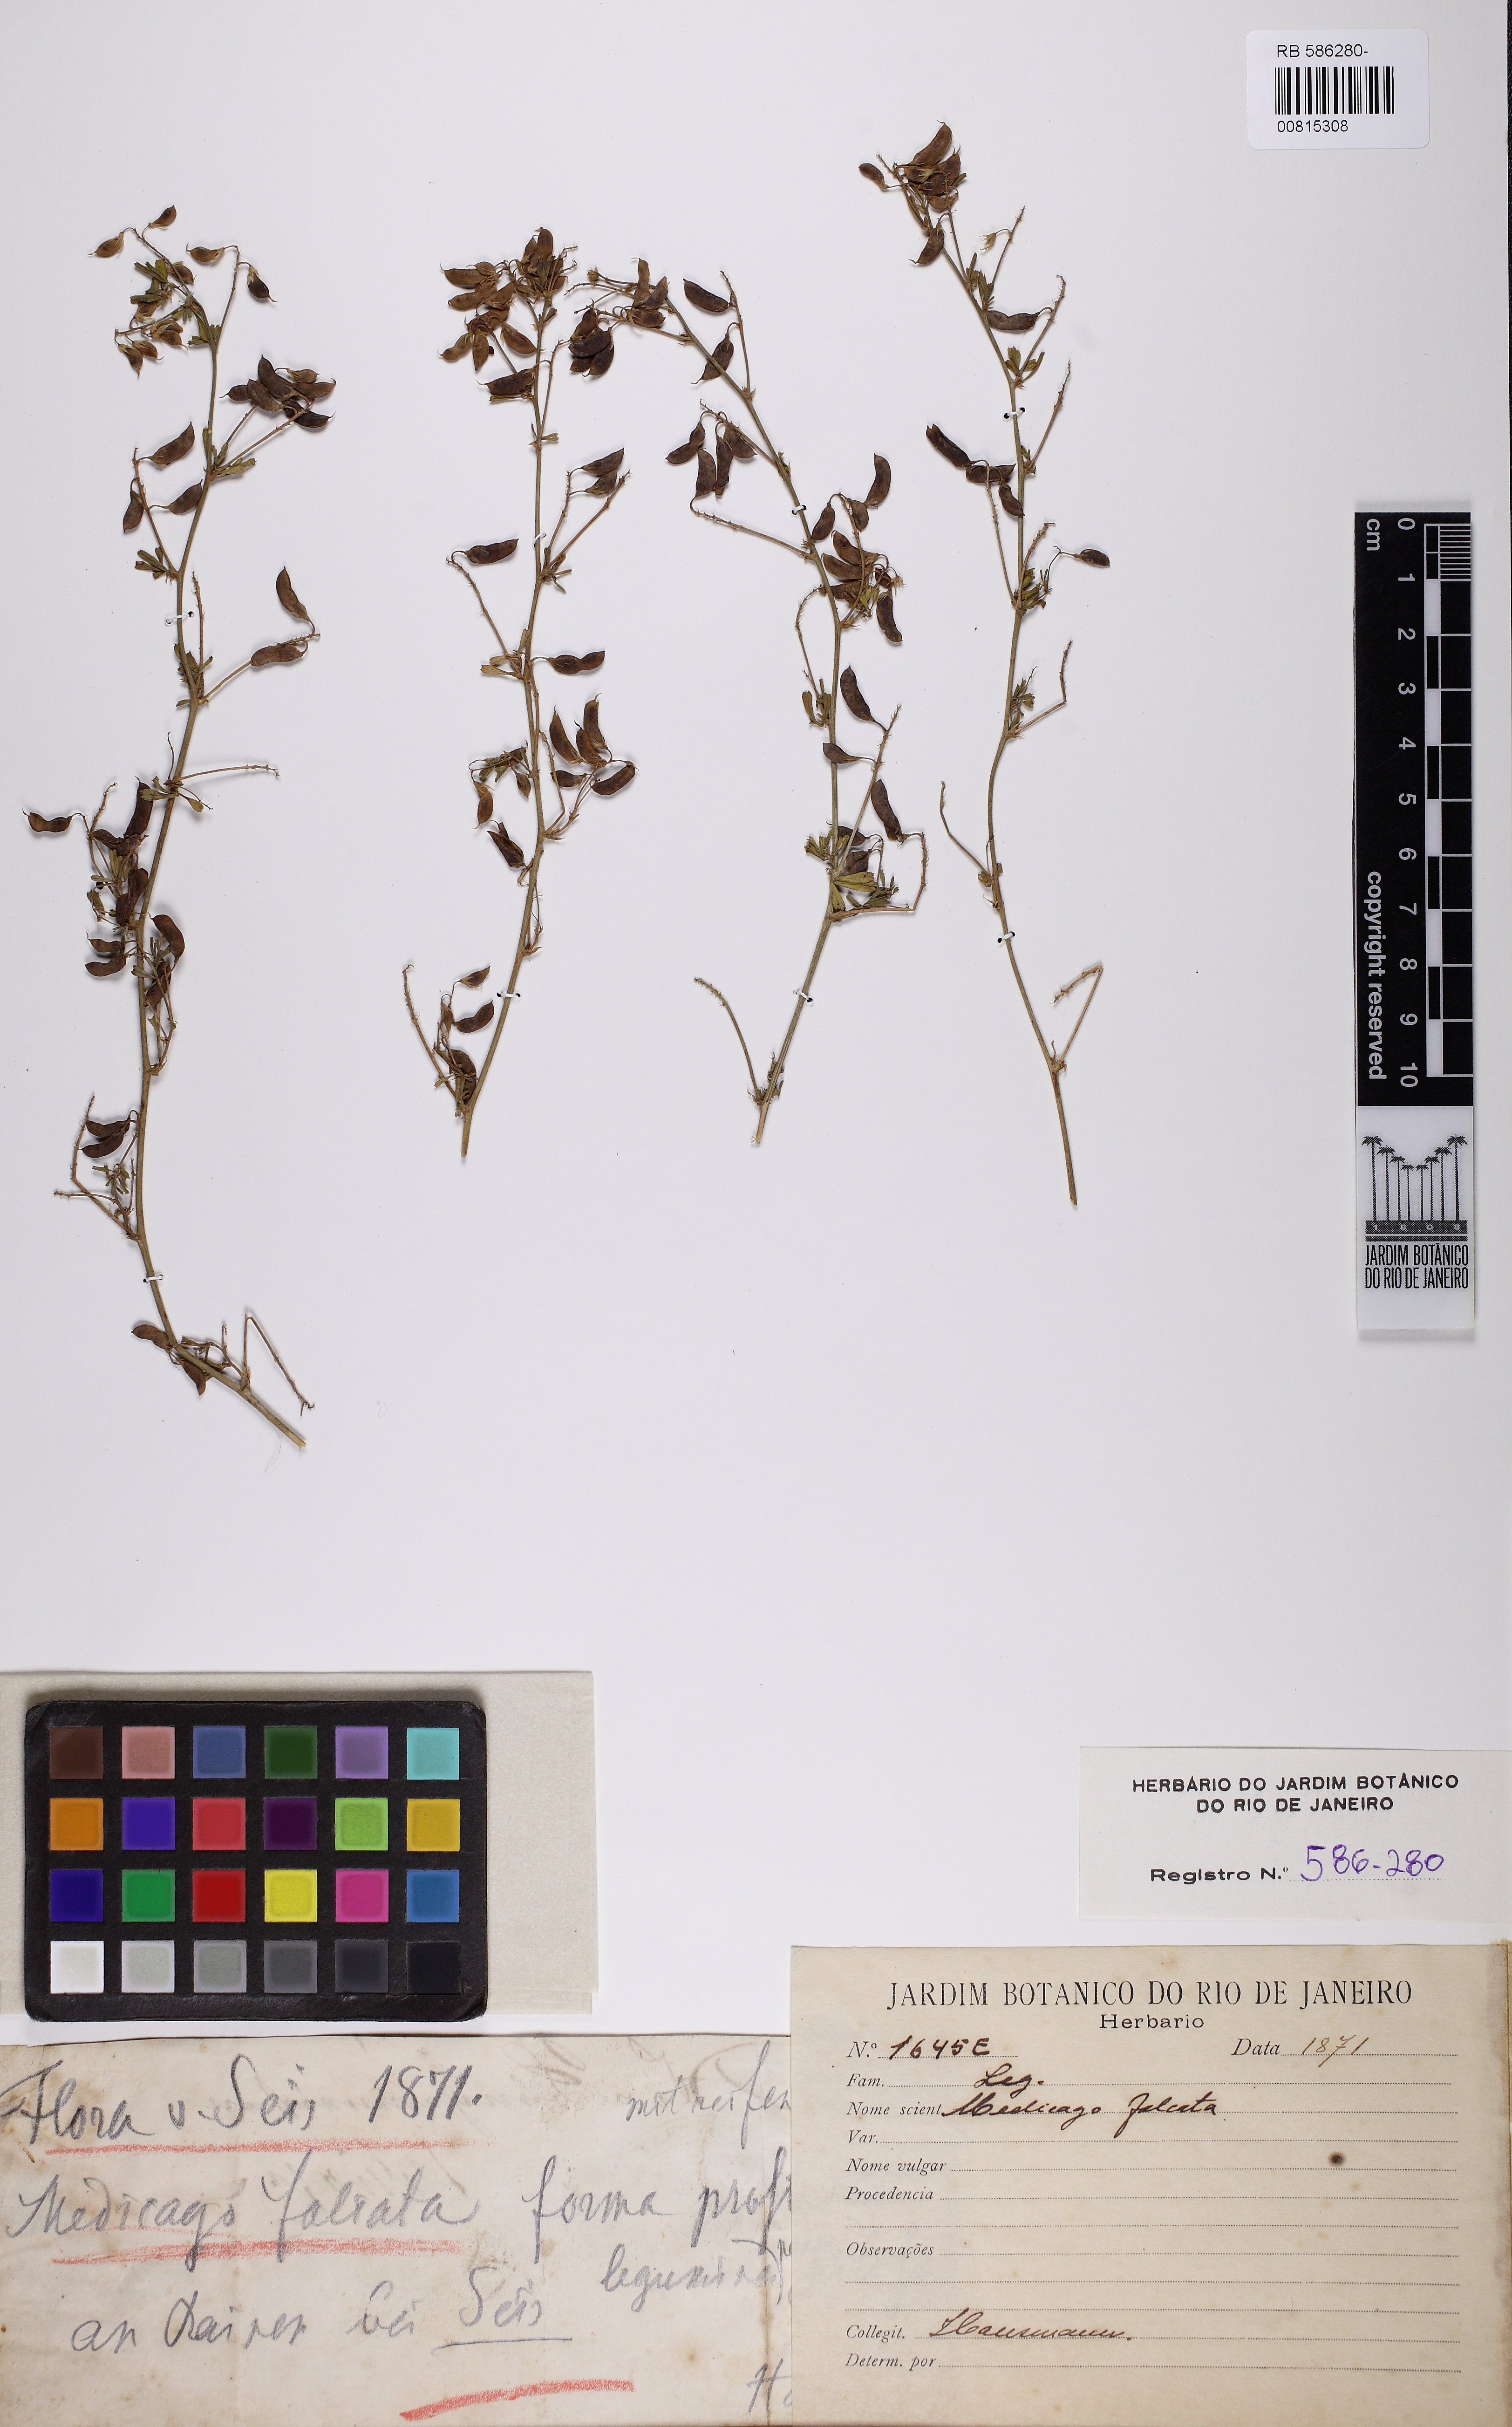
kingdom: Plantae
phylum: Tracheophyta
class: Magnoliopsida
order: Fabales
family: Fabaceae
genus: Medicago
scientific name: Medicago falcata
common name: Sickle medick
